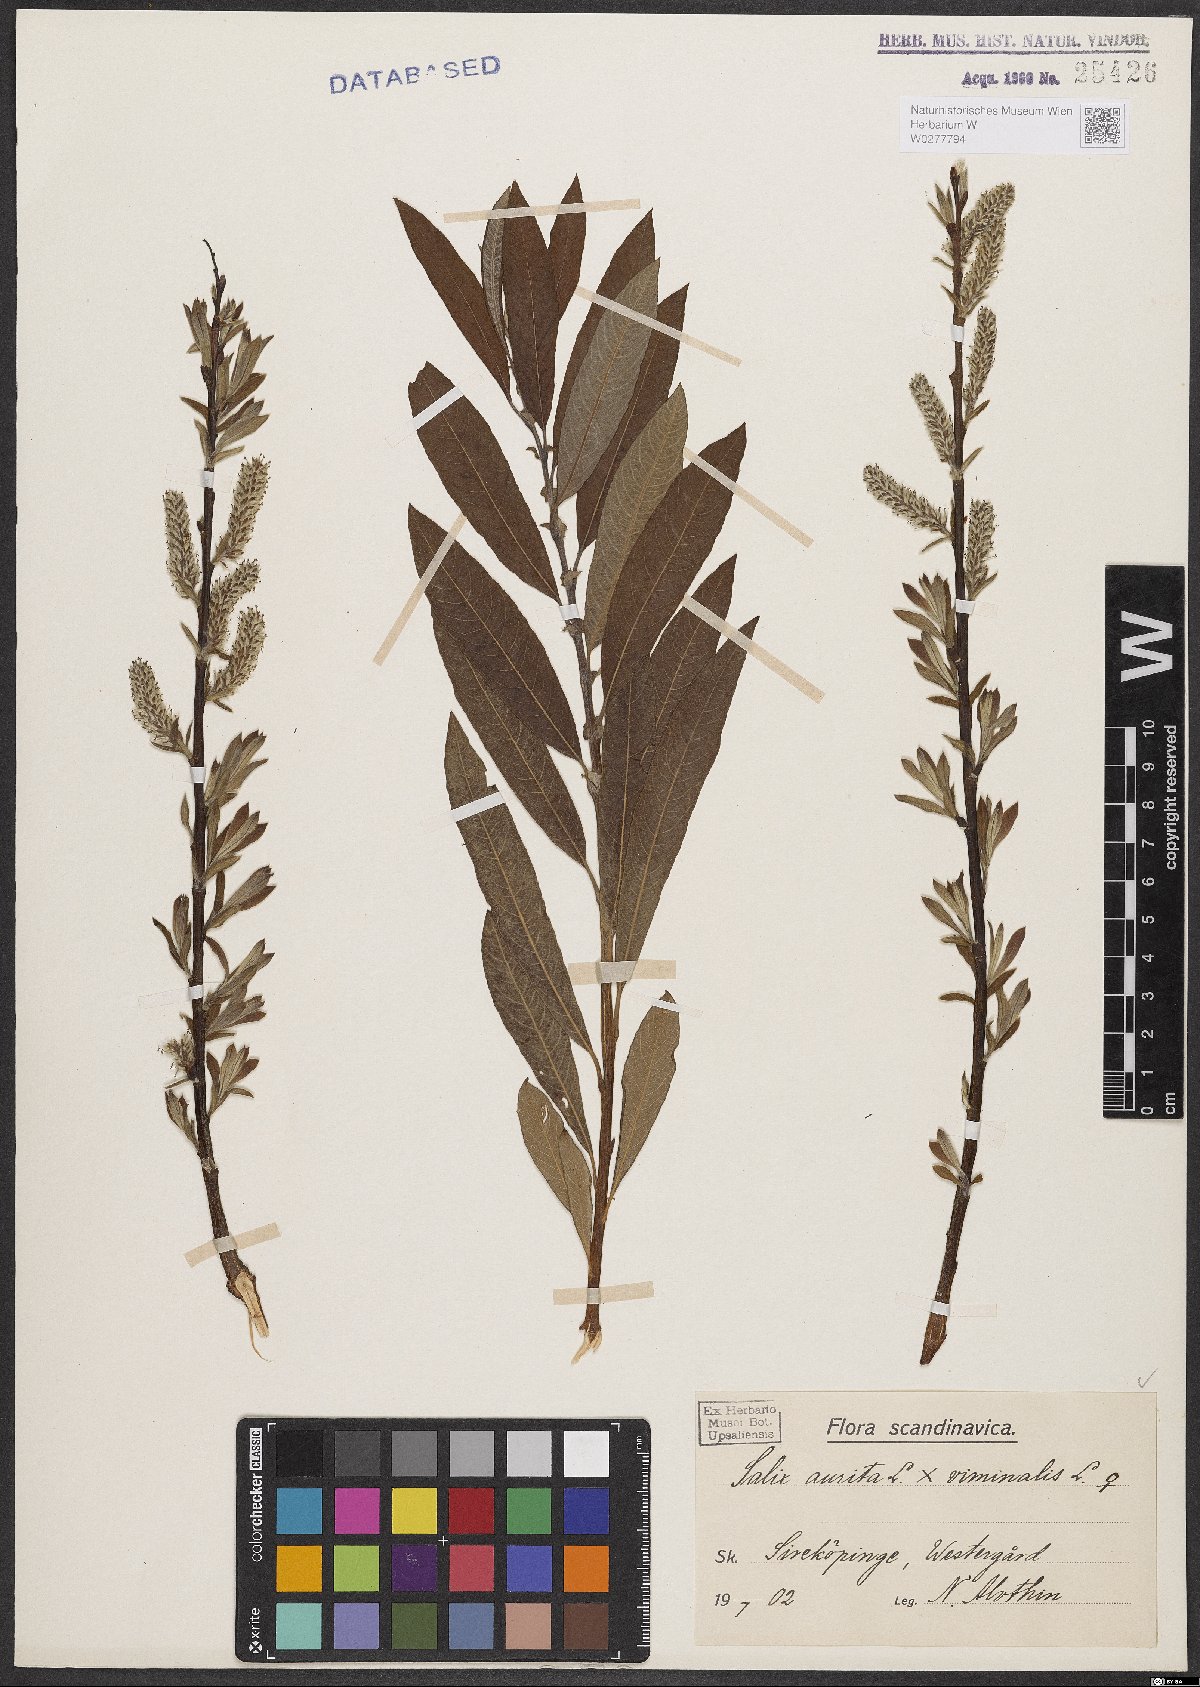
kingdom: Plantae
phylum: Tracheophyta
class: Magnoliopsida
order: Malpighiales
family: Salicaceae
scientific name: Salicaceae
